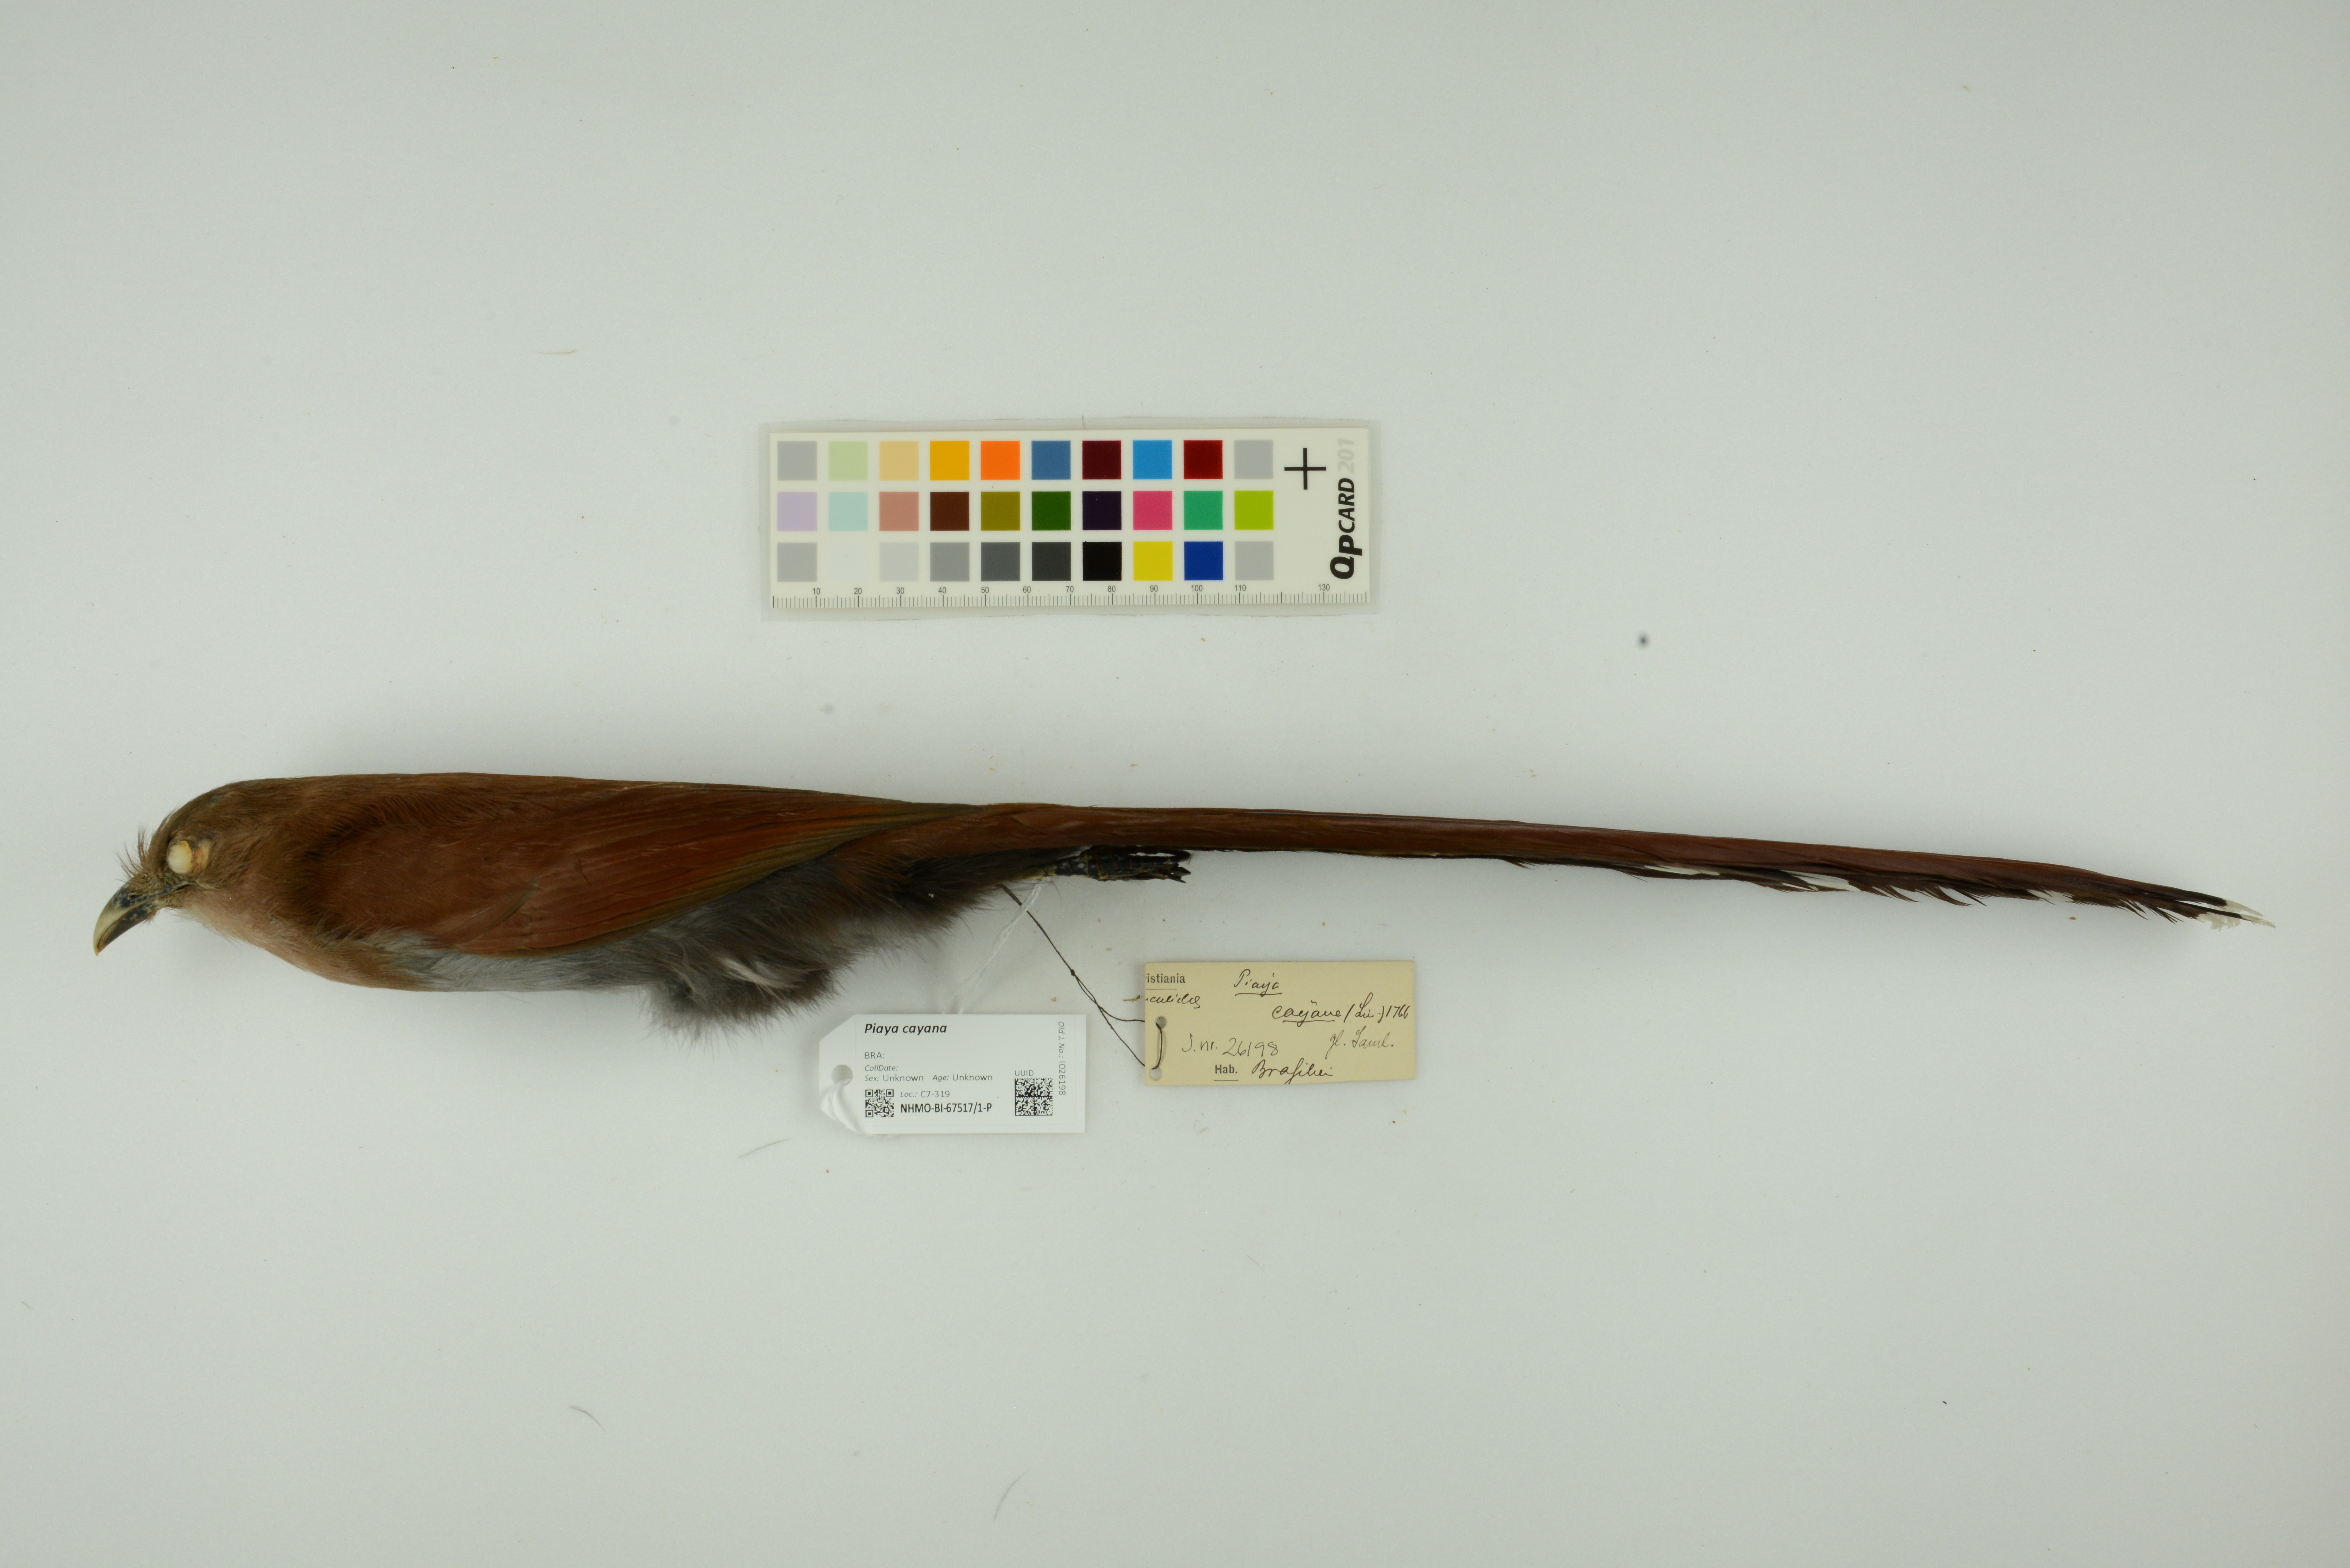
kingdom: Animalia
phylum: Chordata
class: Aves
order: Cuculiformes
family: Cuculidae
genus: Piaya
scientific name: Piaya cayana
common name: Squirrel cuckoo
